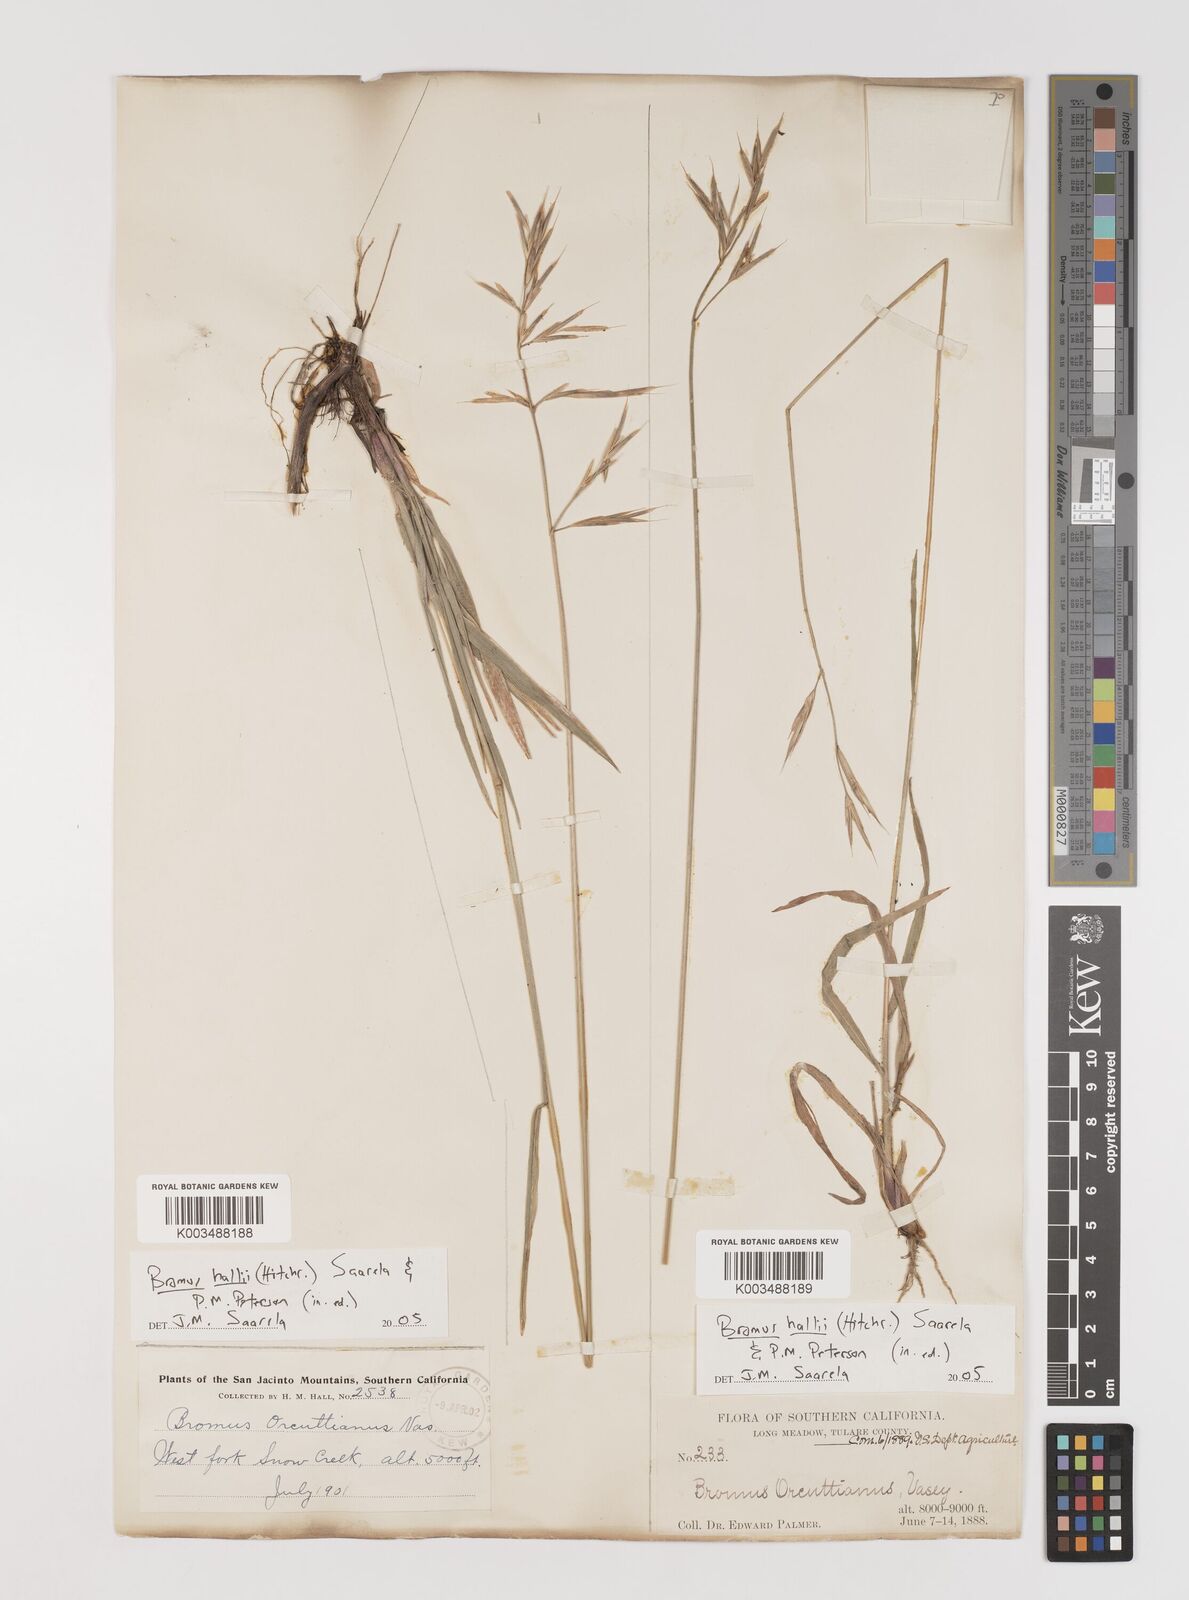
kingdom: Plantae
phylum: Tracheophyta
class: Liliopsida
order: Poales
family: Poaceae
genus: Bromus
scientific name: Bromus
